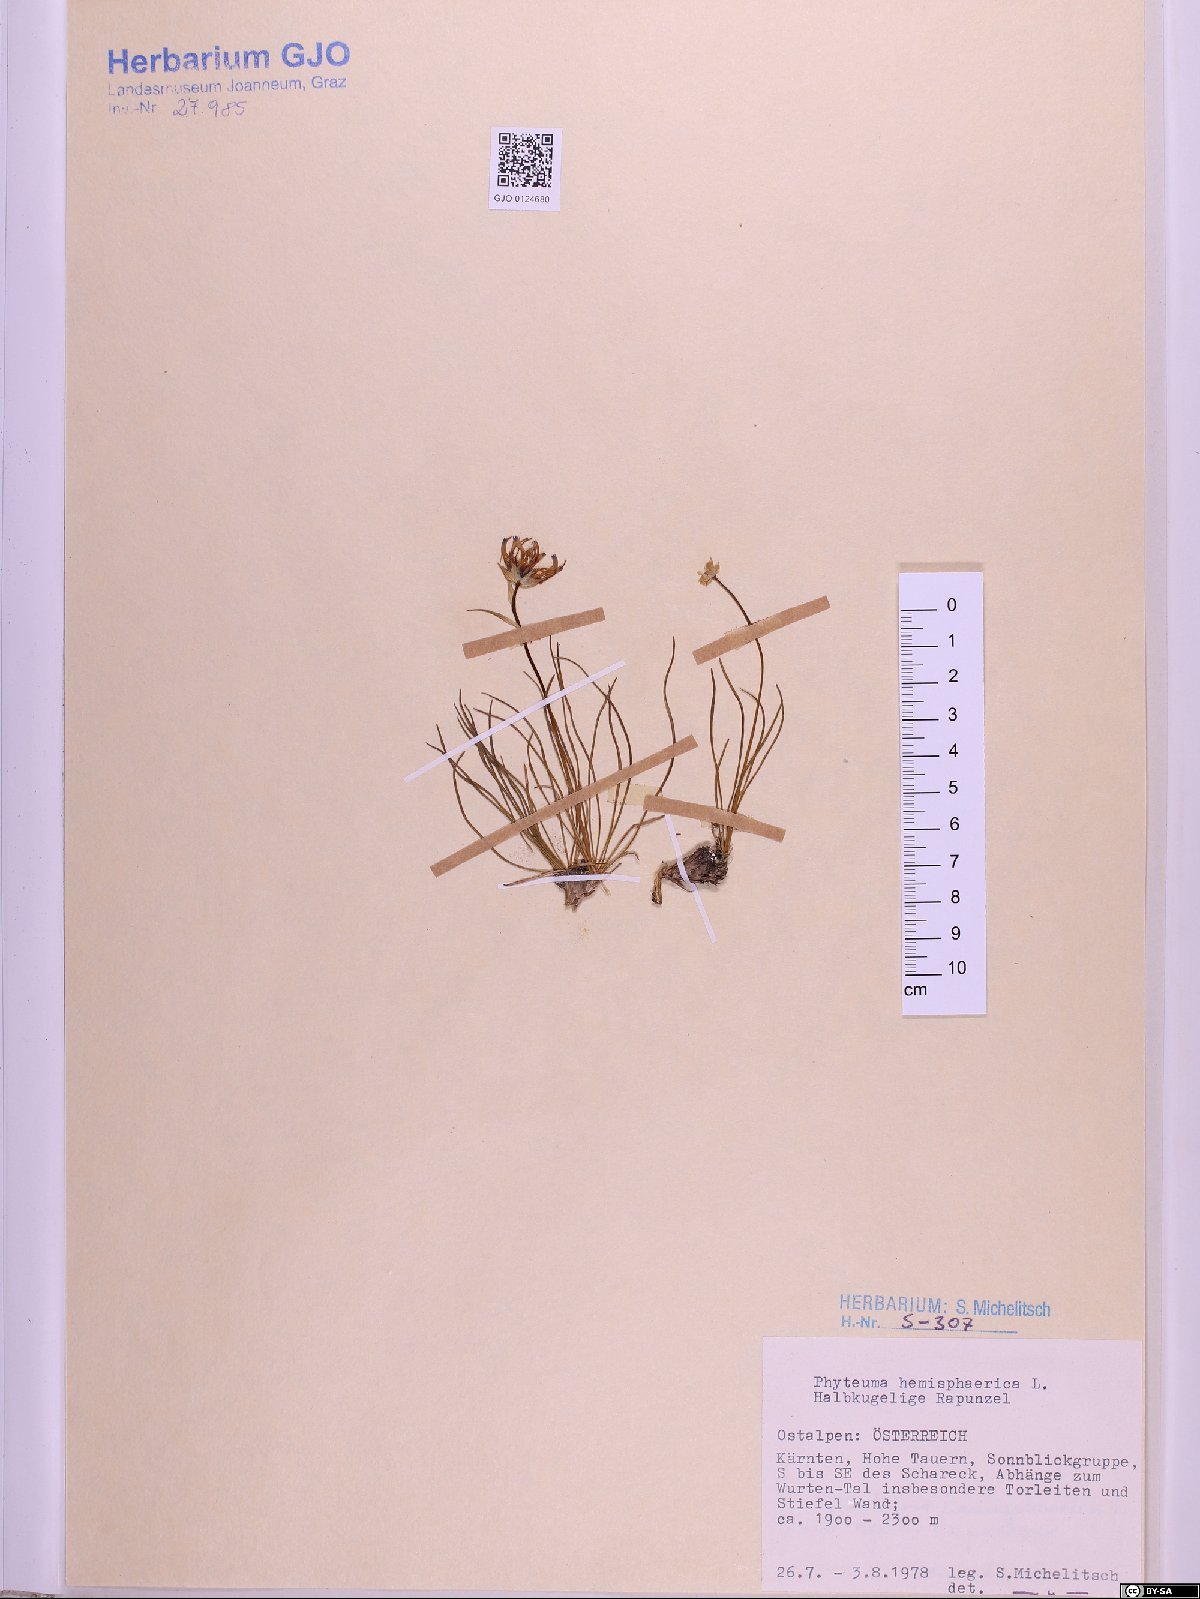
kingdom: Plantae
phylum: Tracheophyta
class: Magnoliopsida
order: Asterales
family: Campanulaceae
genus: Phyteuma
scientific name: Phyteuma hemisphaericum
